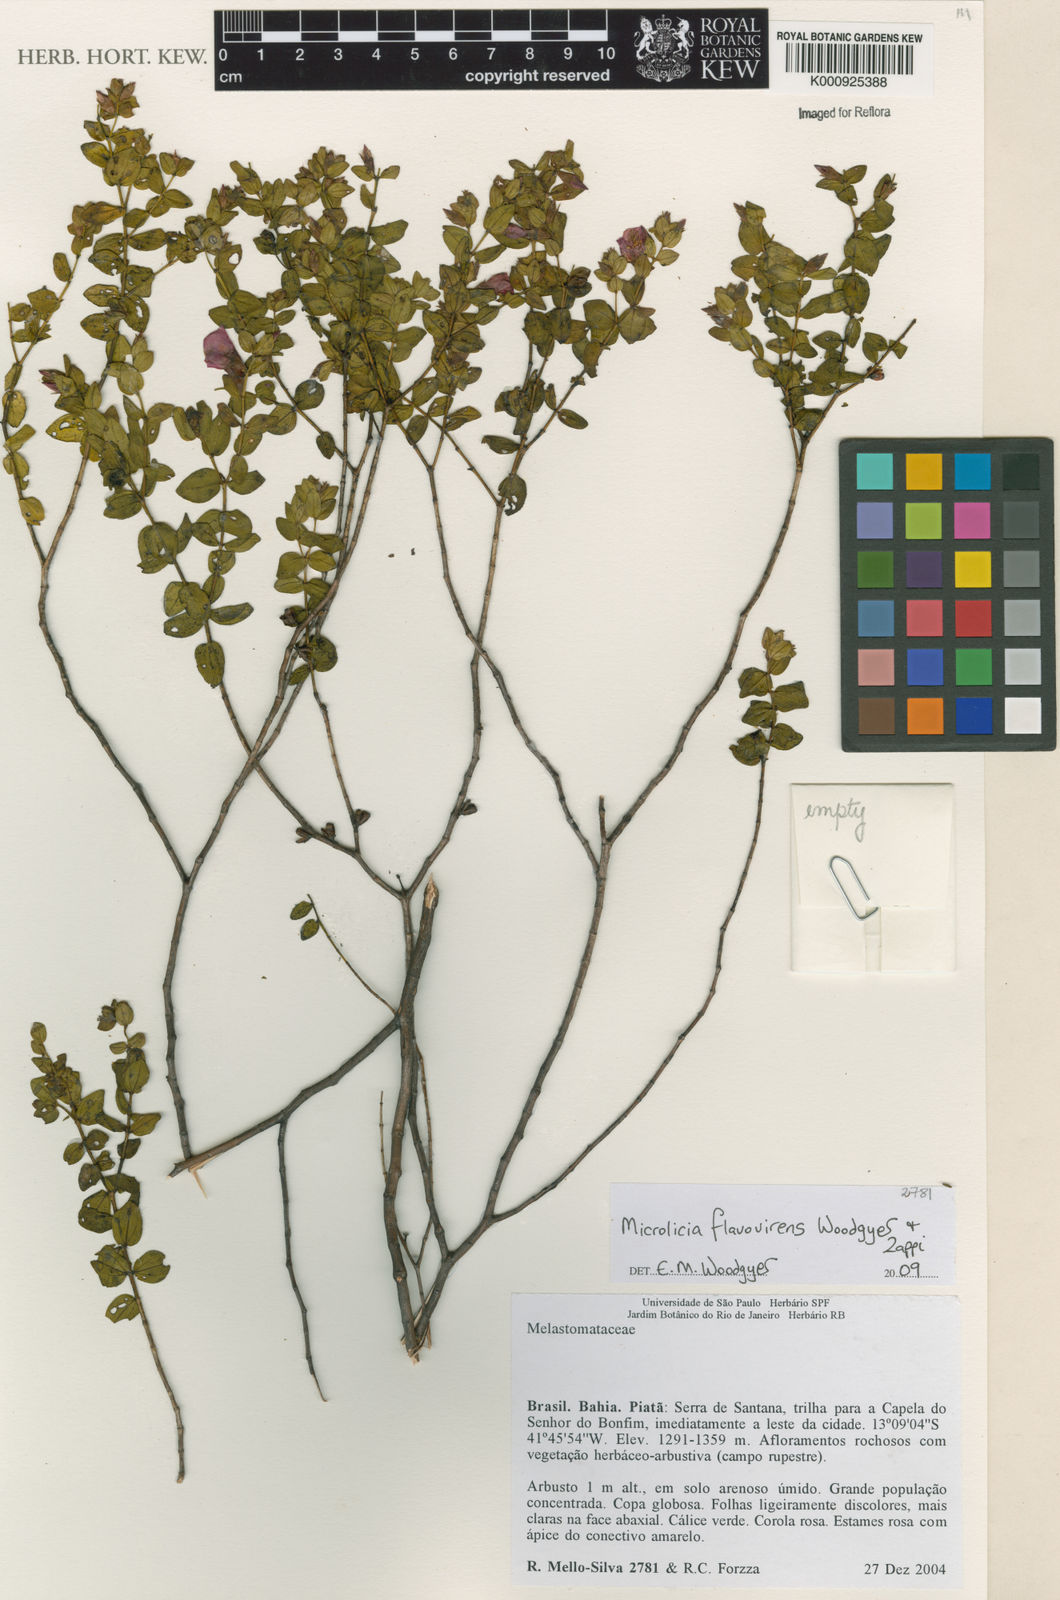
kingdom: Plantae
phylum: Tracheophyta
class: Magnoliopsida
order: Myrtales
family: Melastomataceae
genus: Microlicia
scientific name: Microlicia flavovirens
